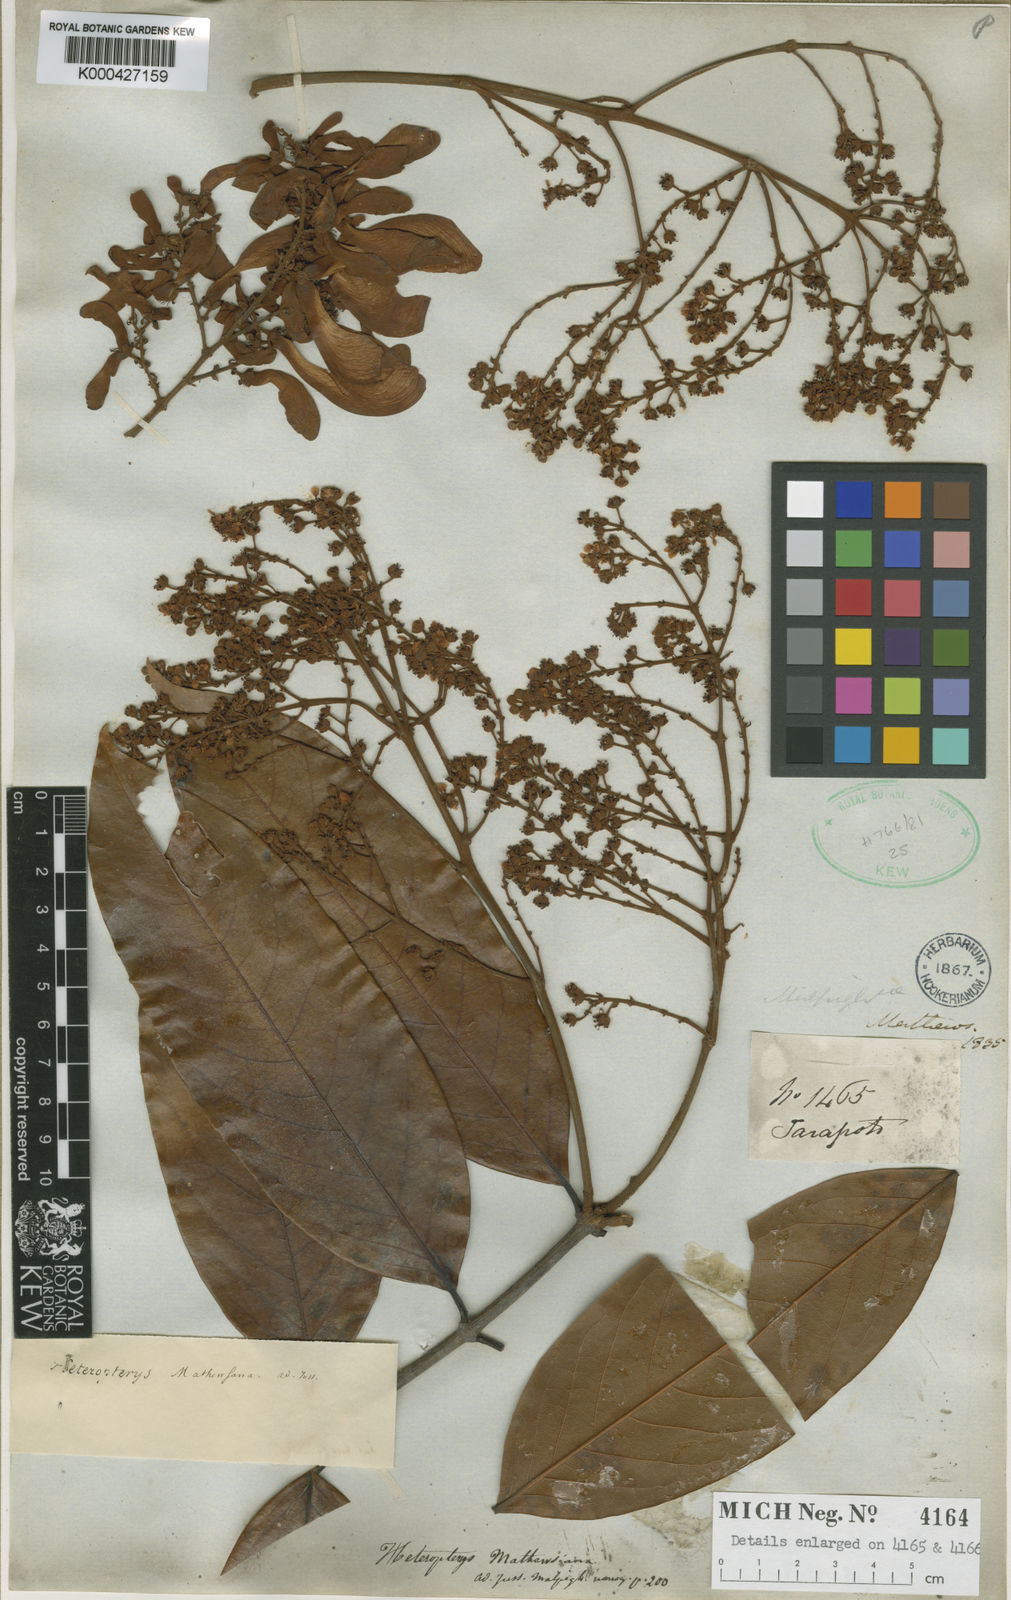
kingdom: Plantae
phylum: Tracheophyta
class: Magnoliopsida
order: Malpighiales
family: Malpighiaceae
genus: Heteropterys
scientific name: Heteropterys mathewsiana
